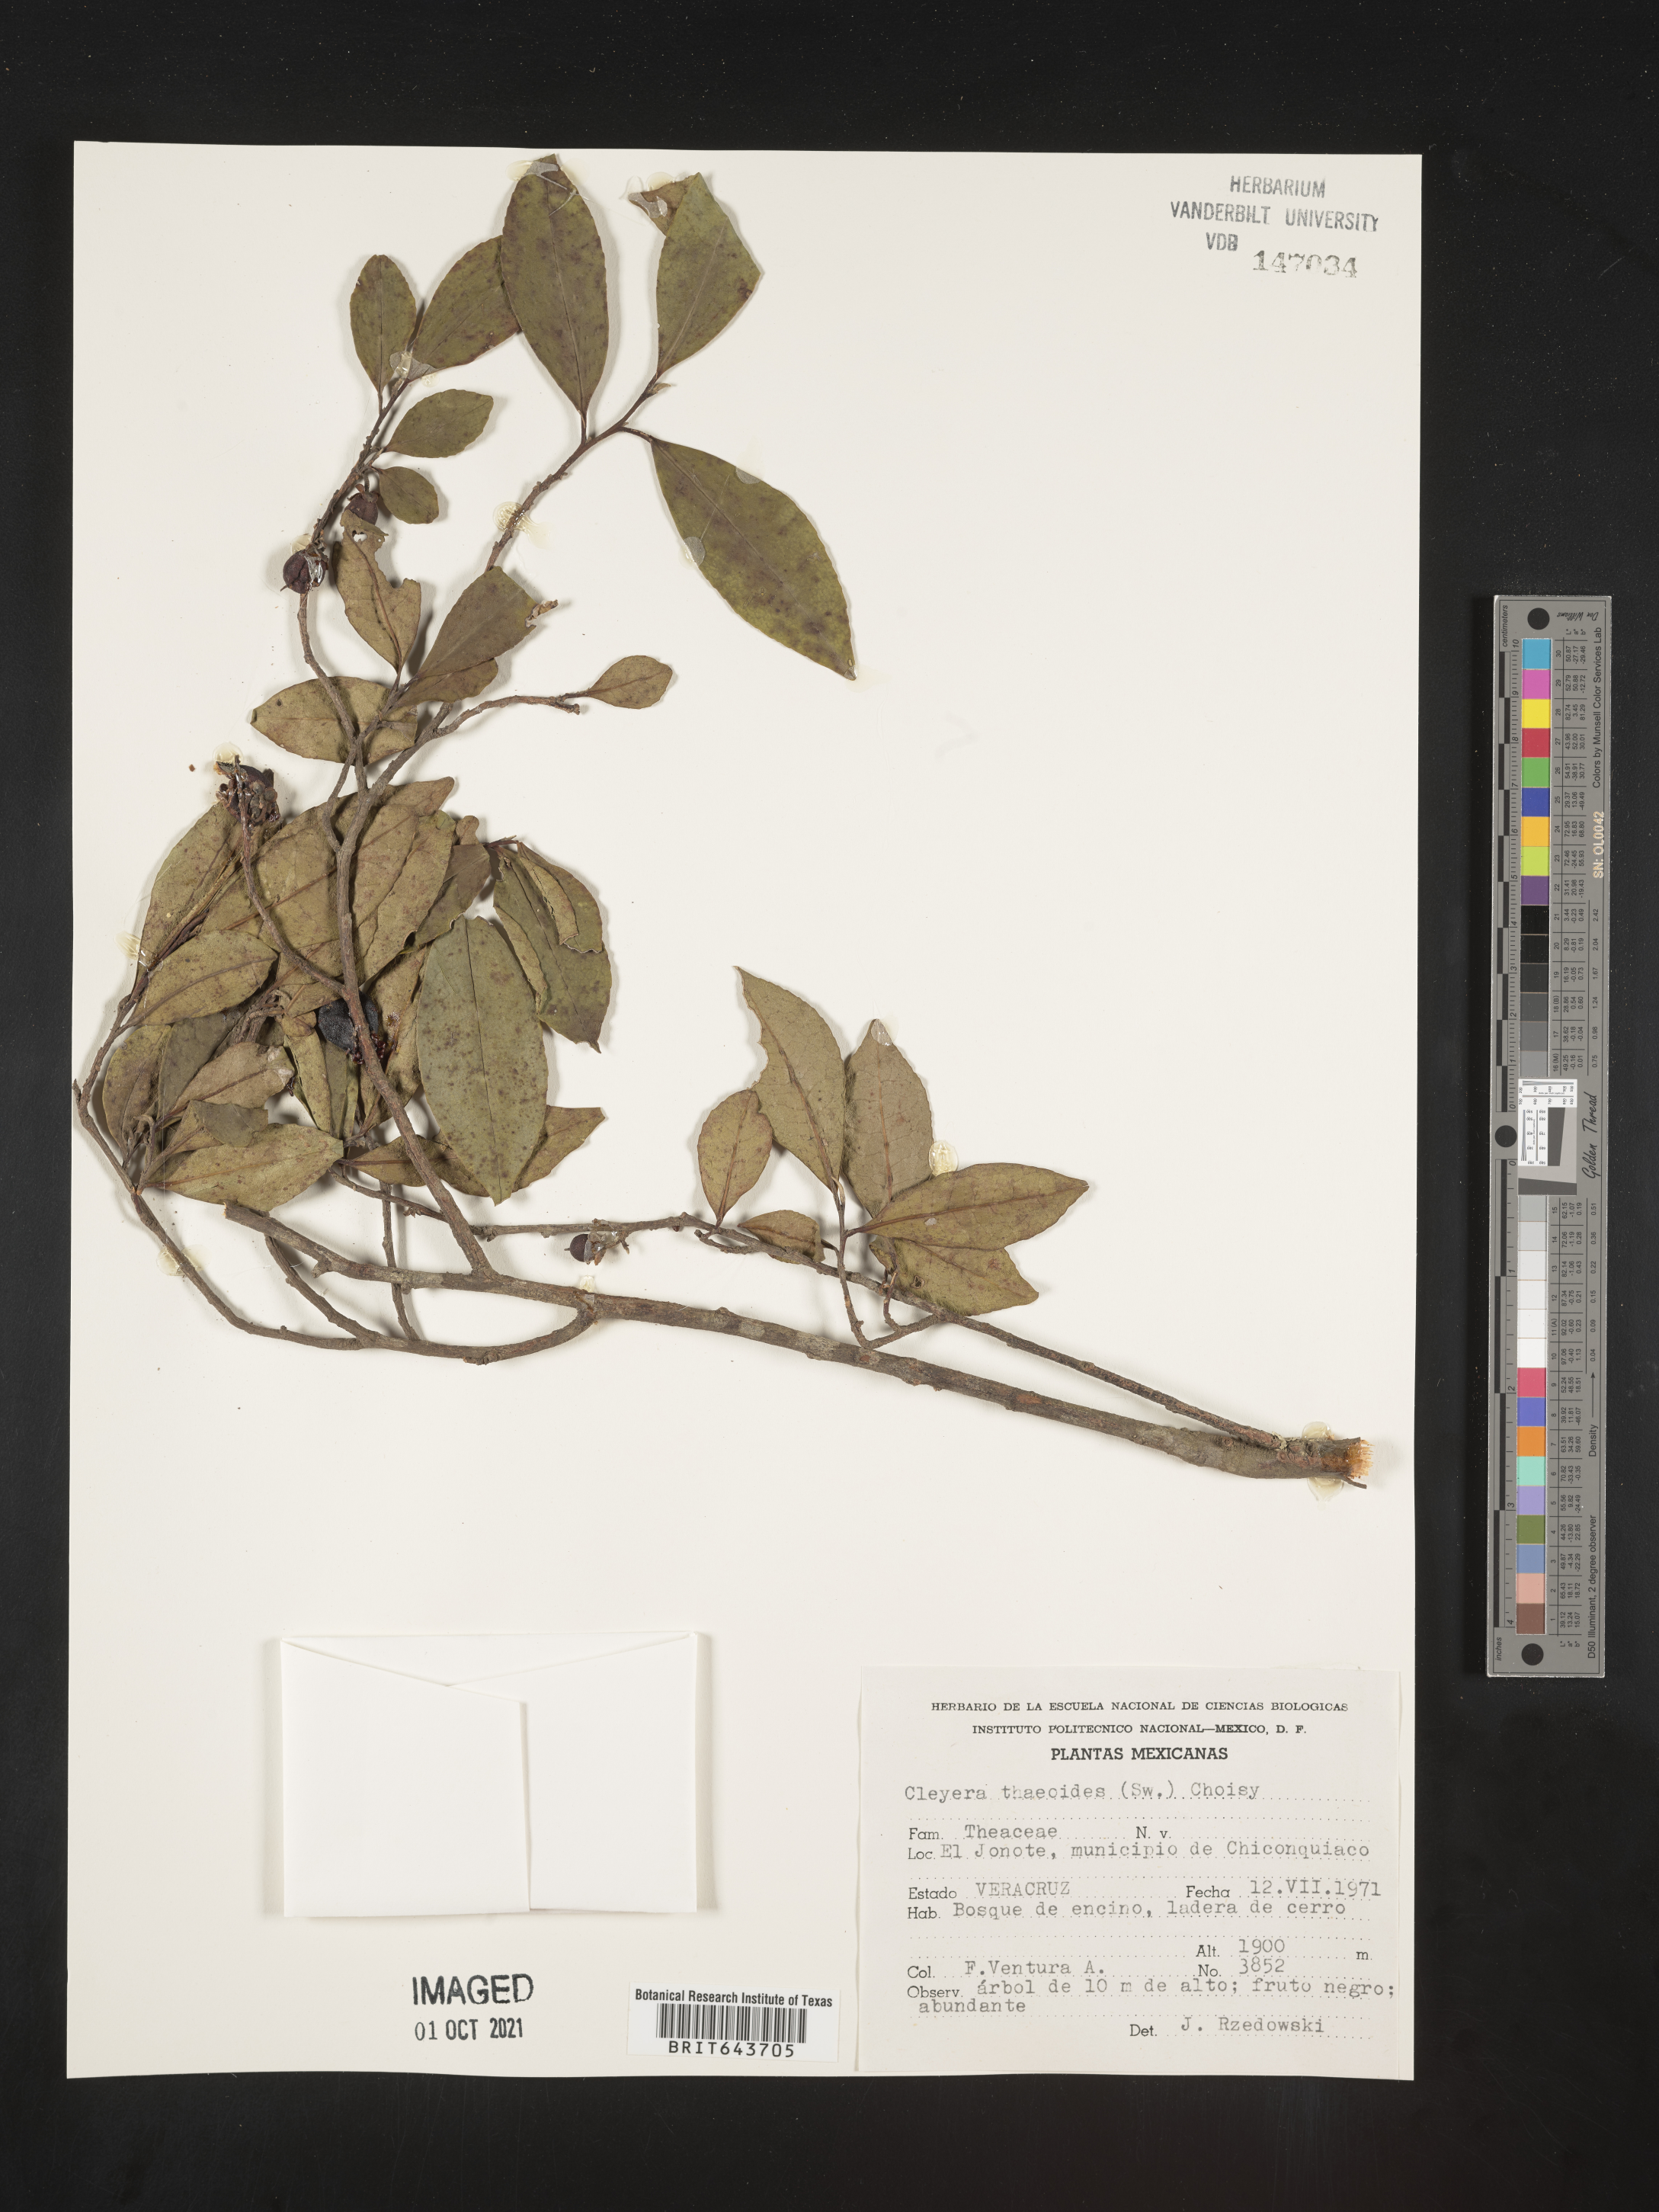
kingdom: Plantae
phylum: Tracheophyta
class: Magnoliopsida
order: Ericales
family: Pentaphylacaceae
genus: Cleyera
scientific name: Cleyera
